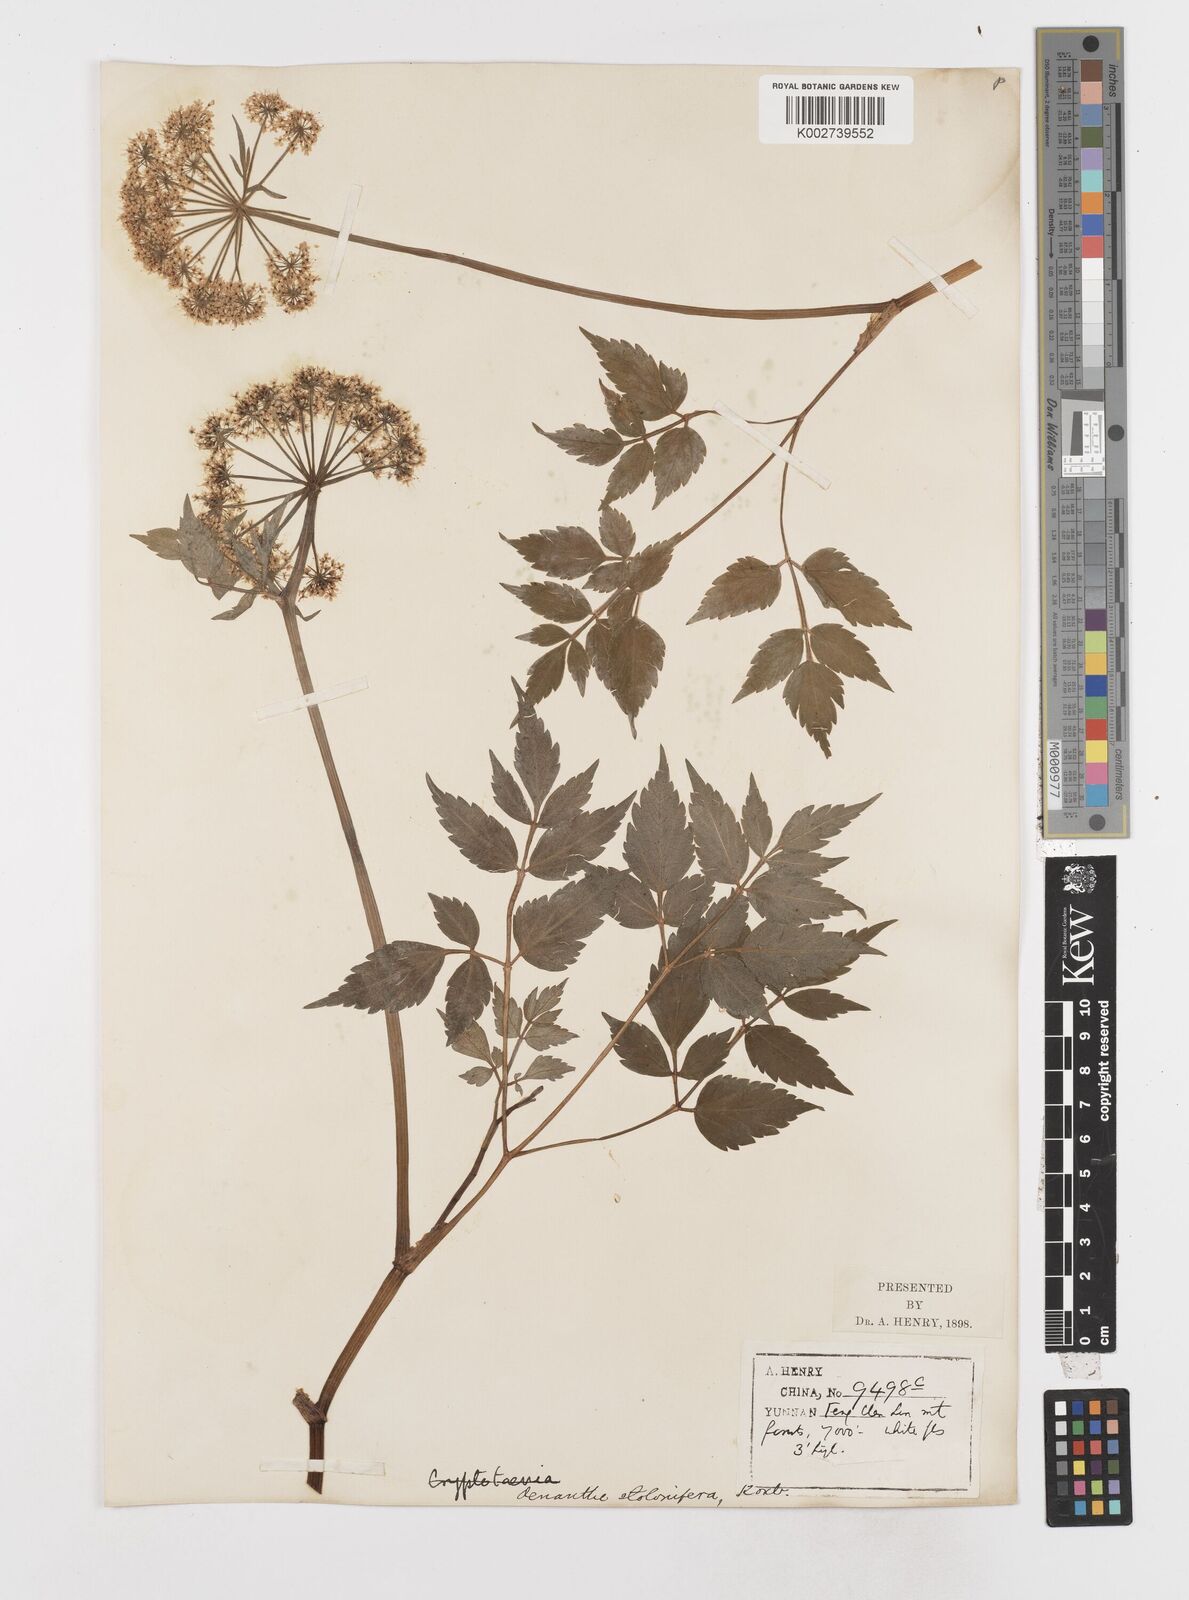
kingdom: Plantae
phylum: Tracheophyta
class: Magnoliopsida
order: Apiales
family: Apiaceae
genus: Oenanthe
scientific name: Oenanthe javanica
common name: Java water-dropwort
